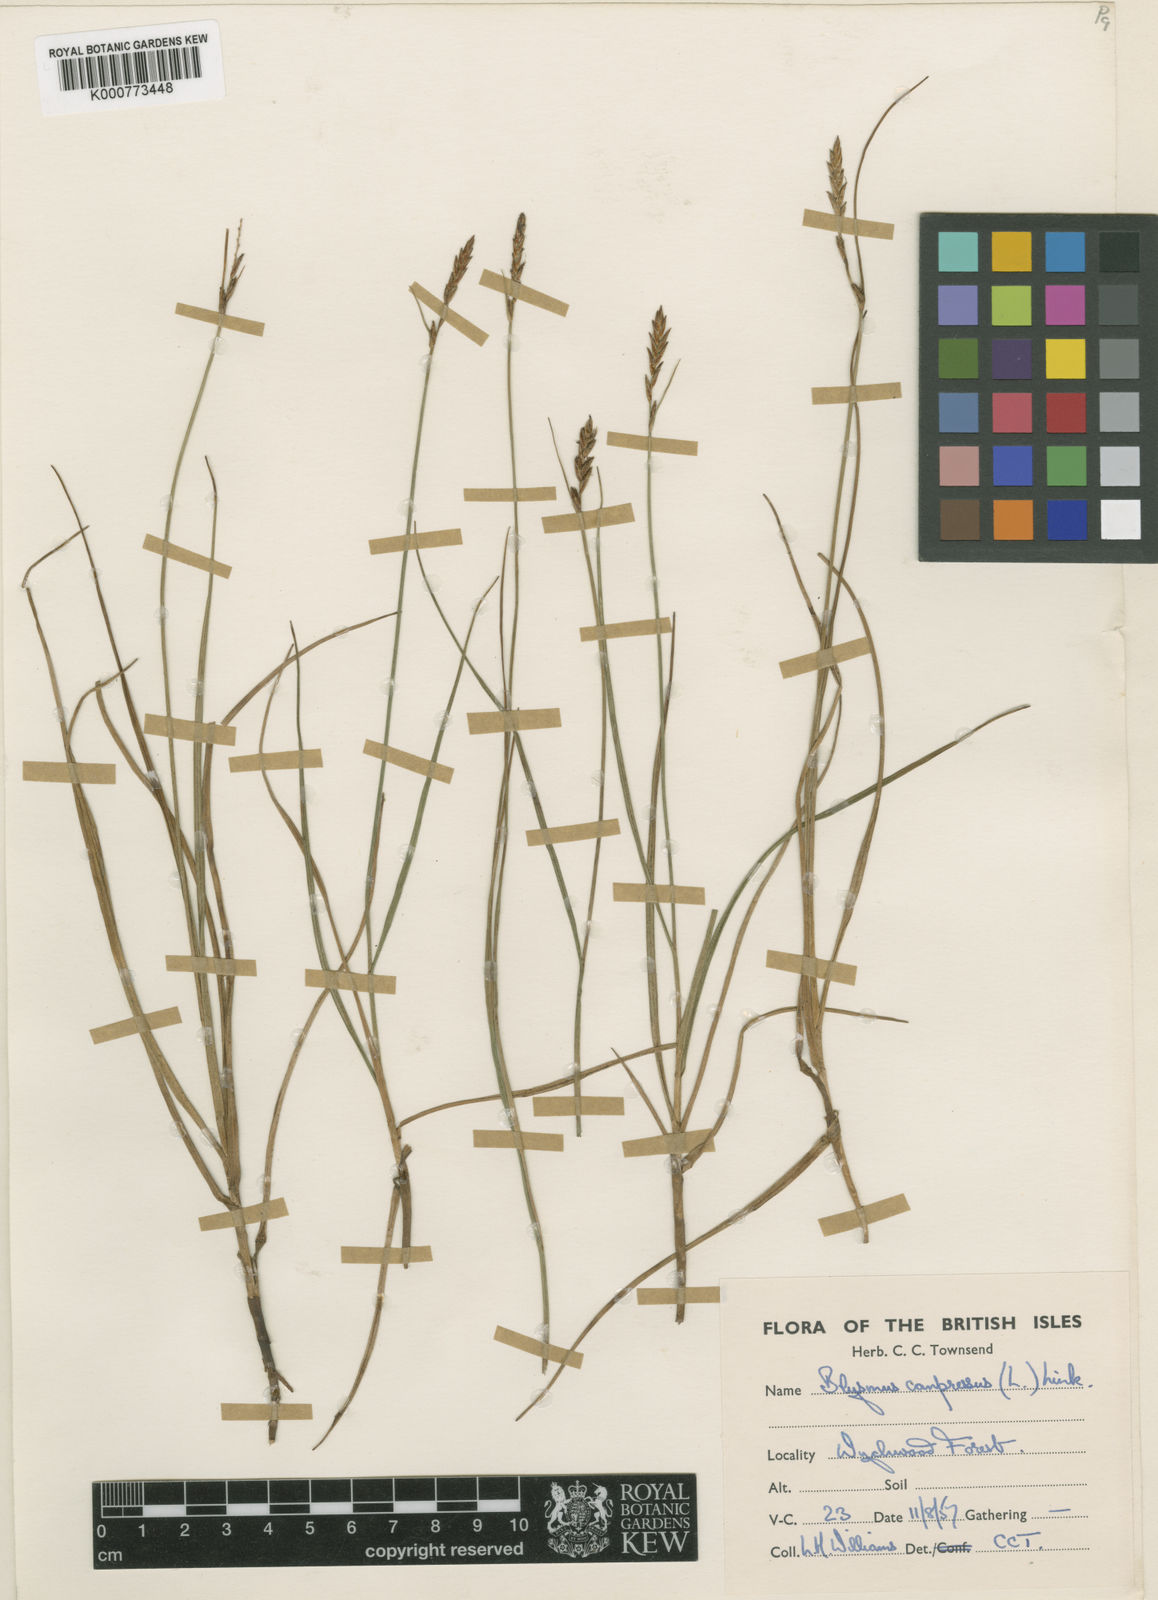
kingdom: Plantae
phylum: Tracheophyta
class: Liliopsida
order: Poales
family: Cyperaceae
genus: Blysmus
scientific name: Blysmus compressus
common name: Flat-sedge
